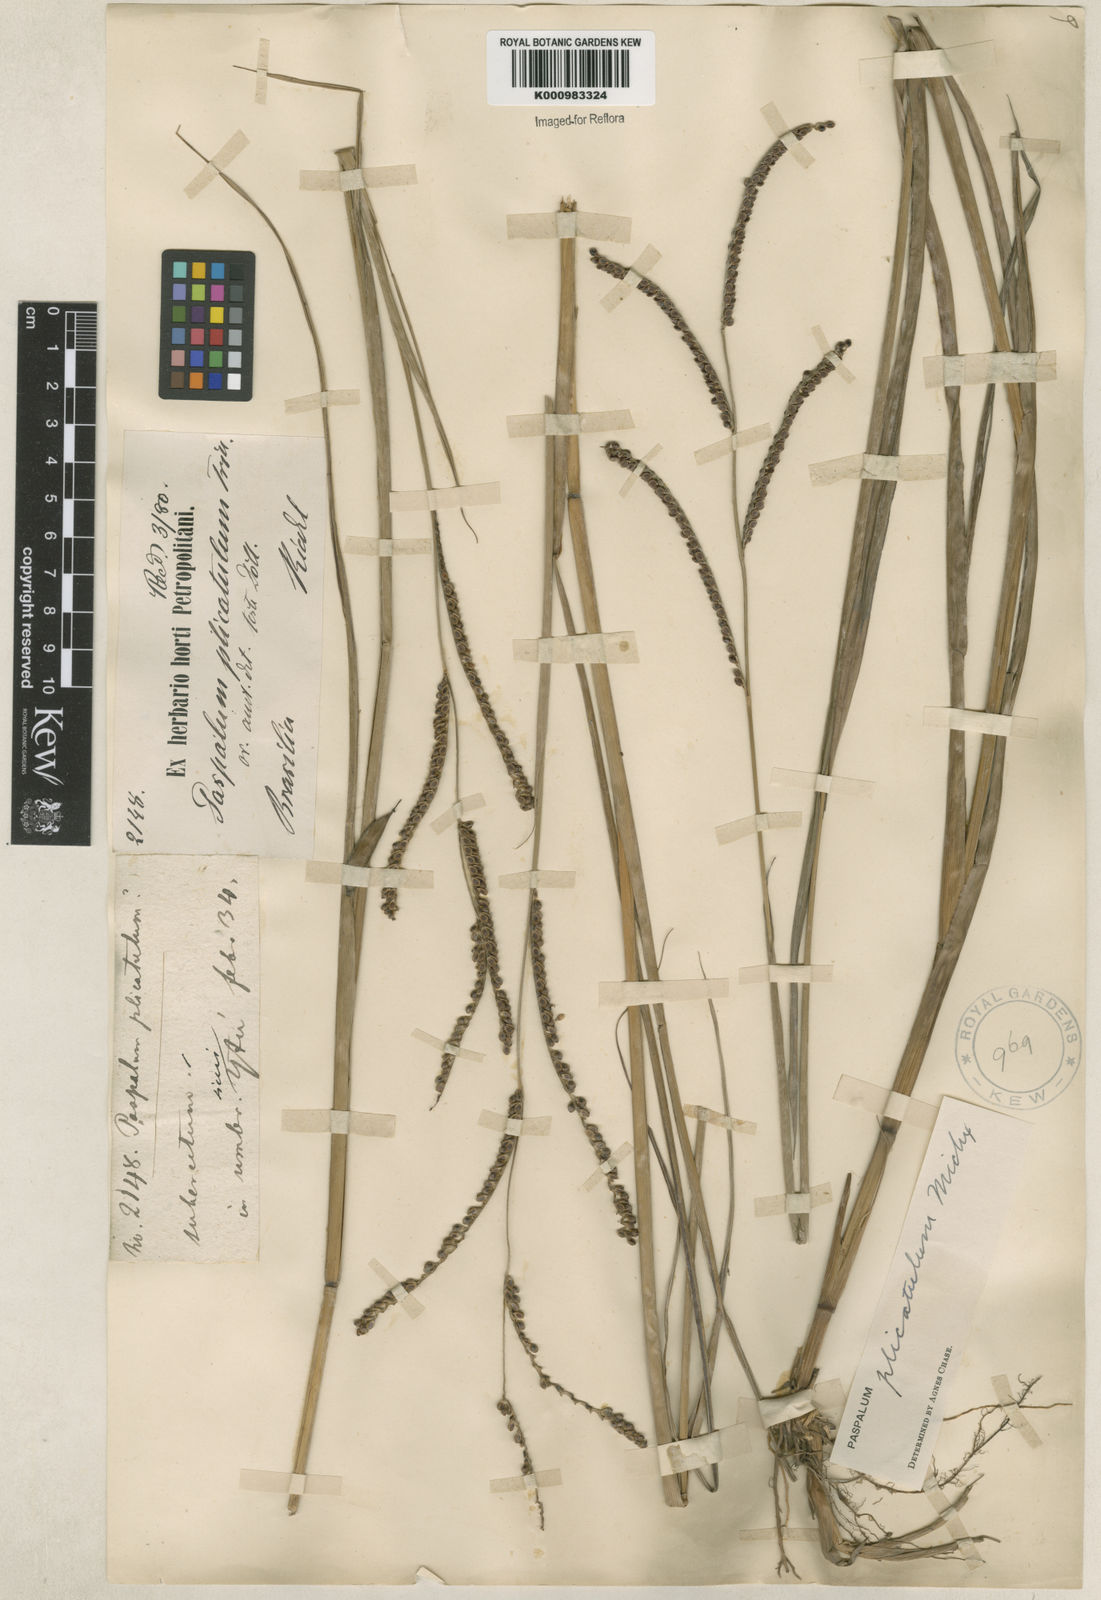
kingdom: Plantae
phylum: Tracheophyta
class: Liliopsida
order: Poales
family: Poaceae
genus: Paspalum
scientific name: Paspalum plicatulum
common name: Top paspalum
